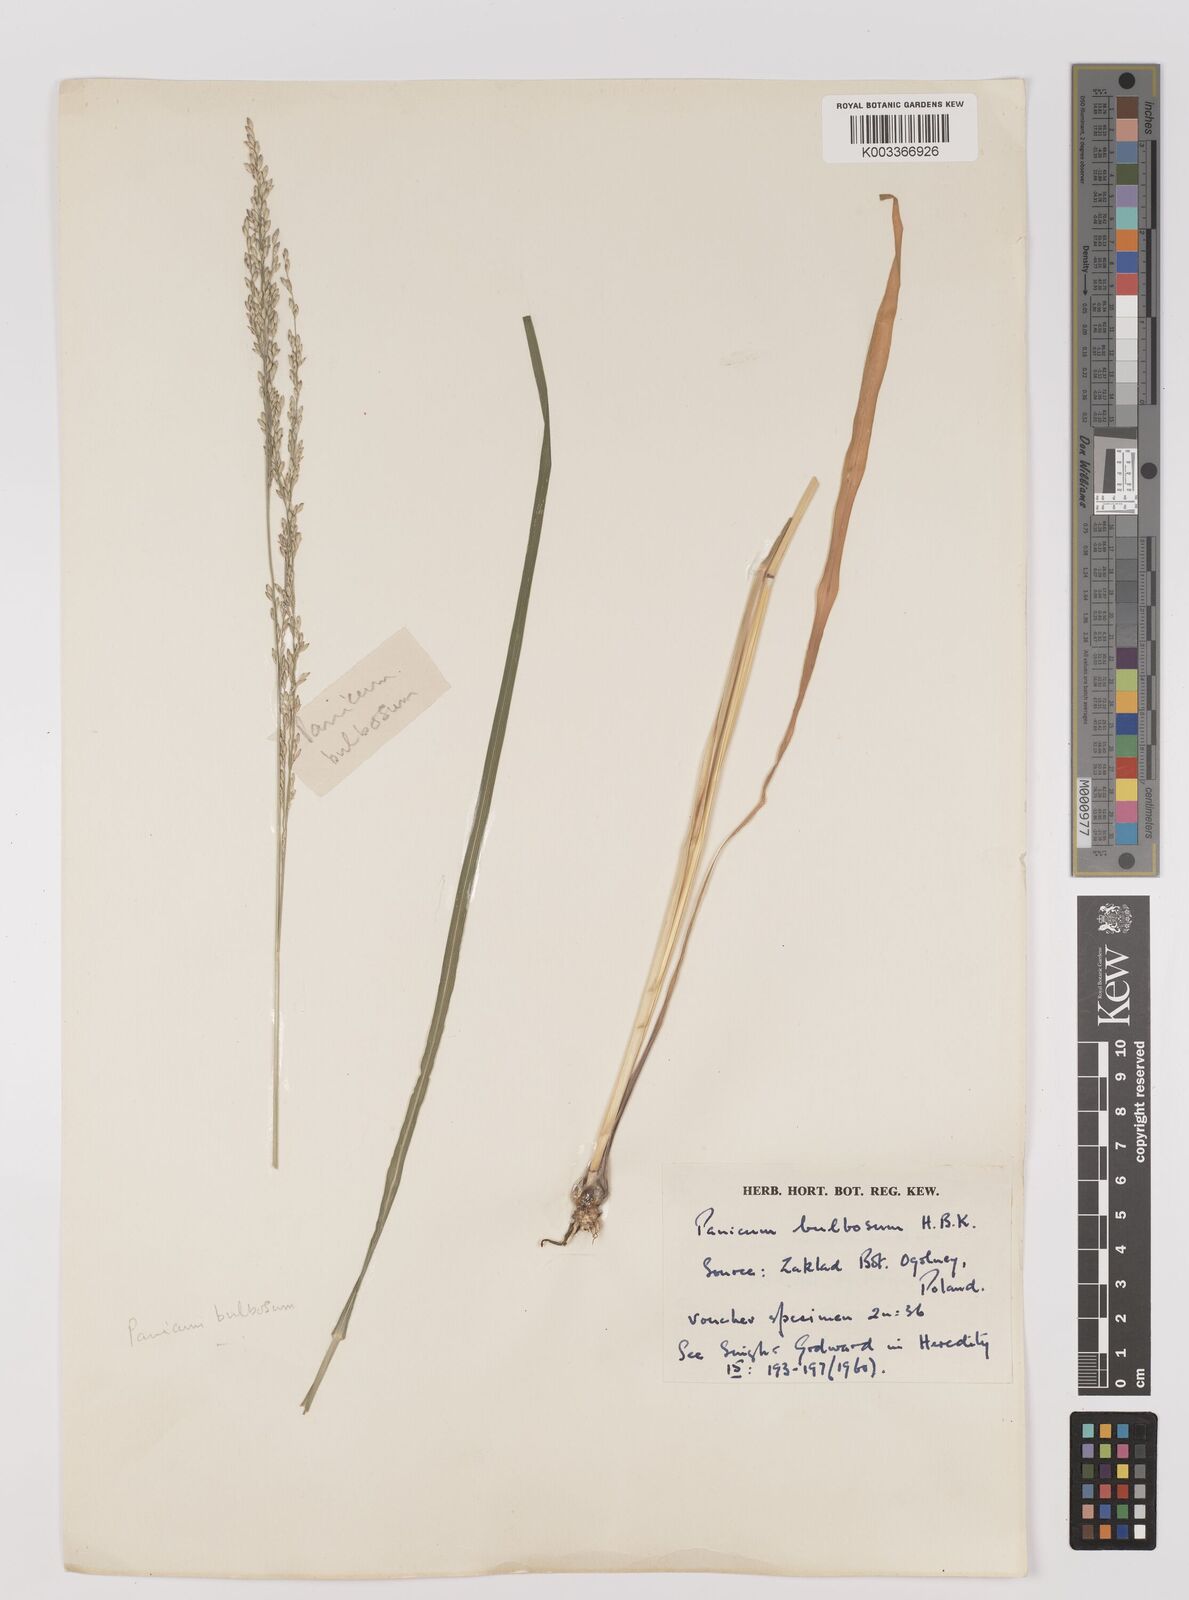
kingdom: Plantae
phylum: Tracheophyta
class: Liliopsida
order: Poales
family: Poaceae
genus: Zuloagaea
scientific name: Zuloagaea bulbosa
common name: Canyon panic grass
